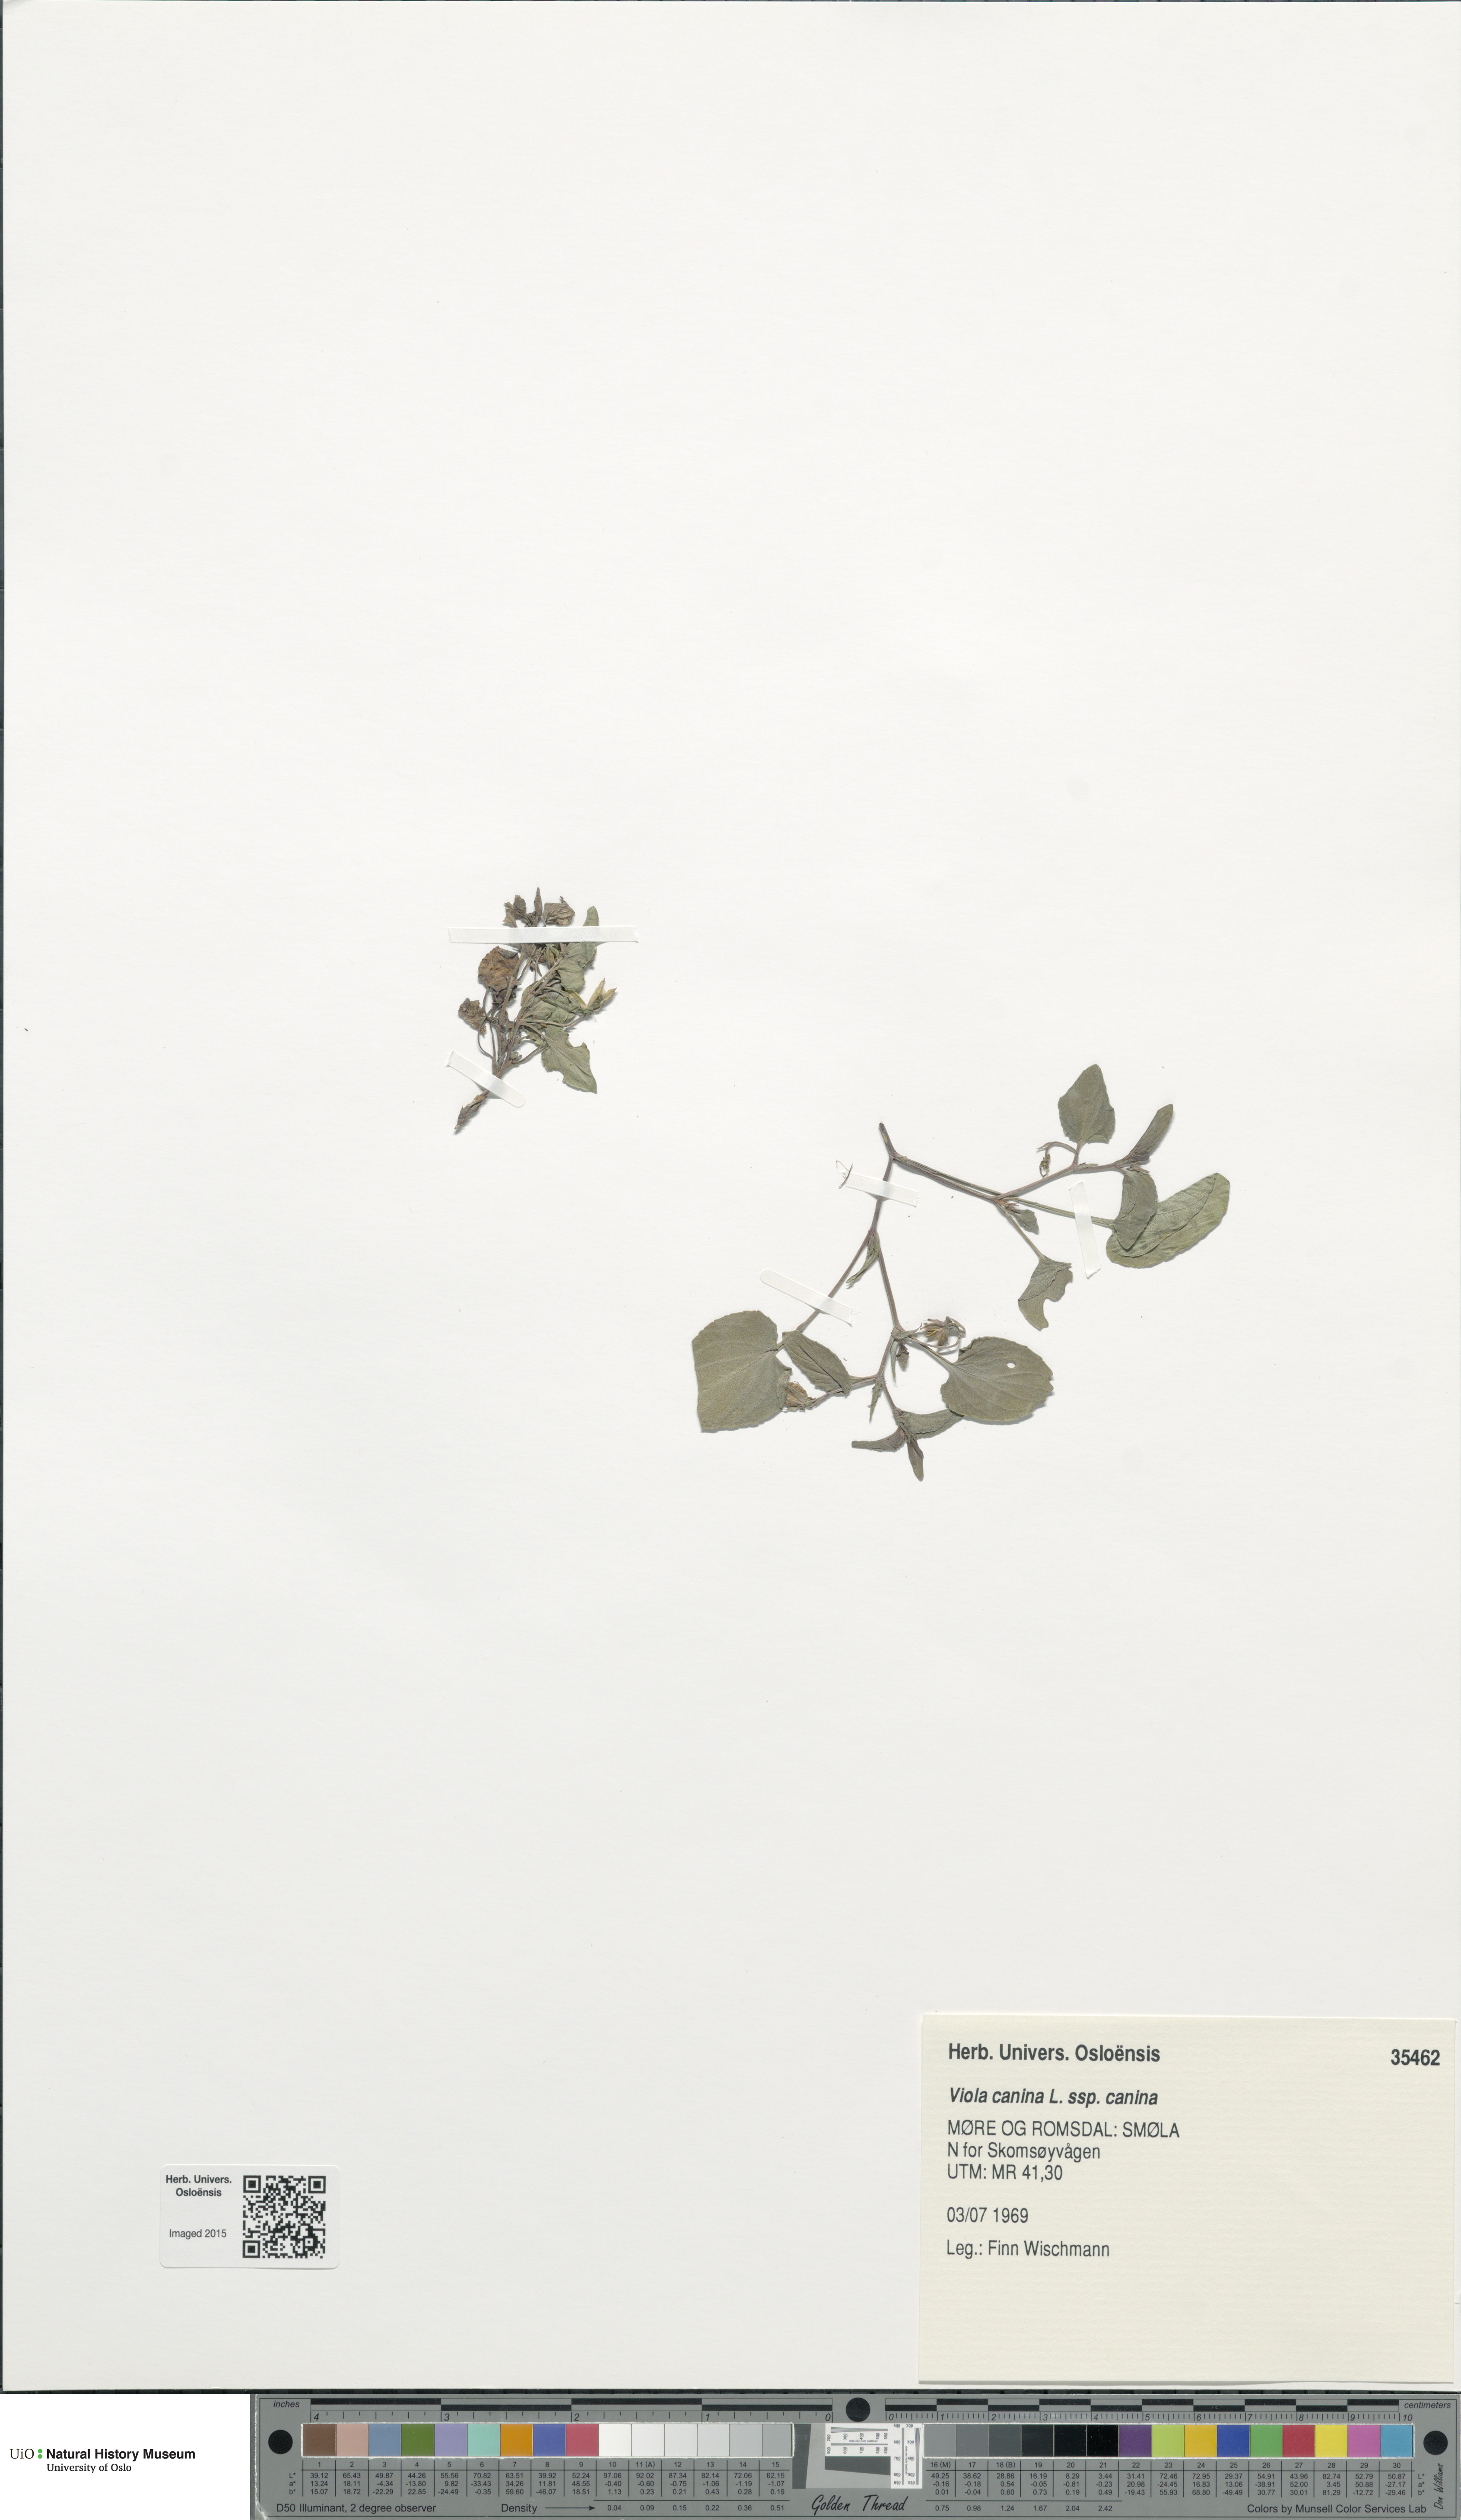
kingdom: Plantae
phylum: Tracheophyta
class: Magnoliopsida
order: Malpighiales
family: Violaceae
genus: Viola
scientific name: Viola canina
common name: Heath dog-violet
